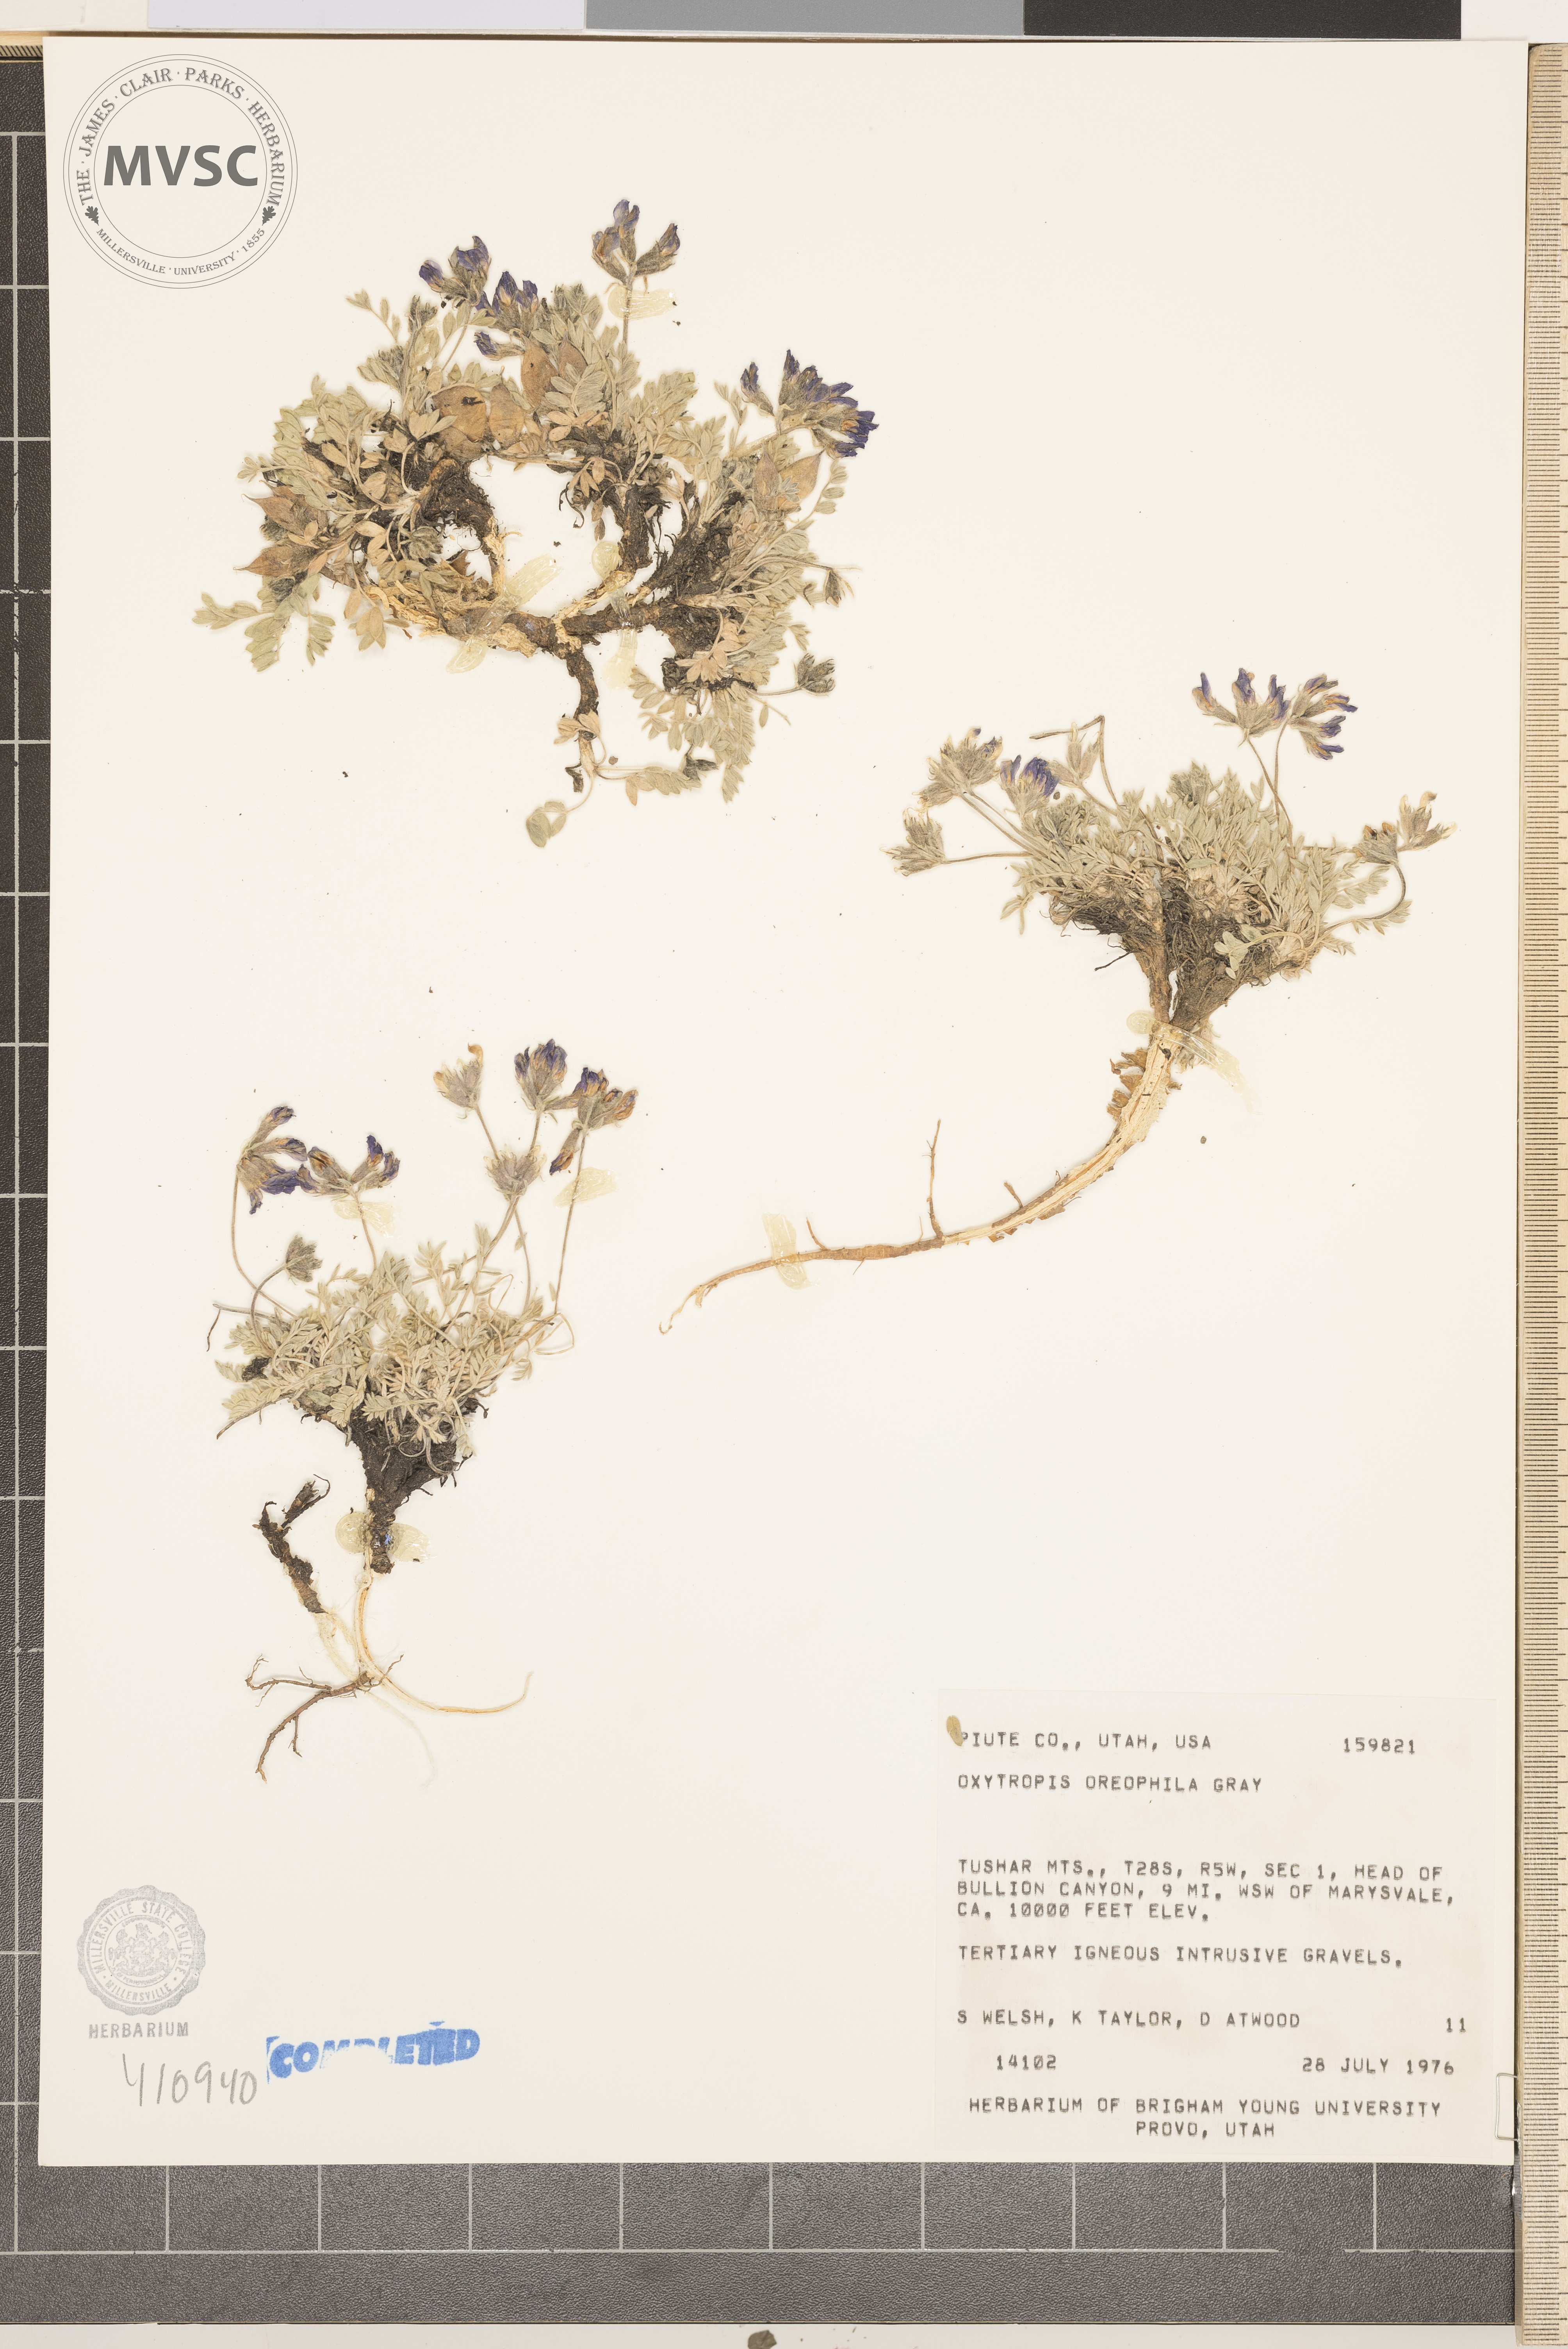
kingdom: Plantae
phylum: Tracheophyta
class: Magnoliopsida
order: Fabales
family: Fabaceae
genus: Oxytropis
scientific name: Oxytropis oreophila
